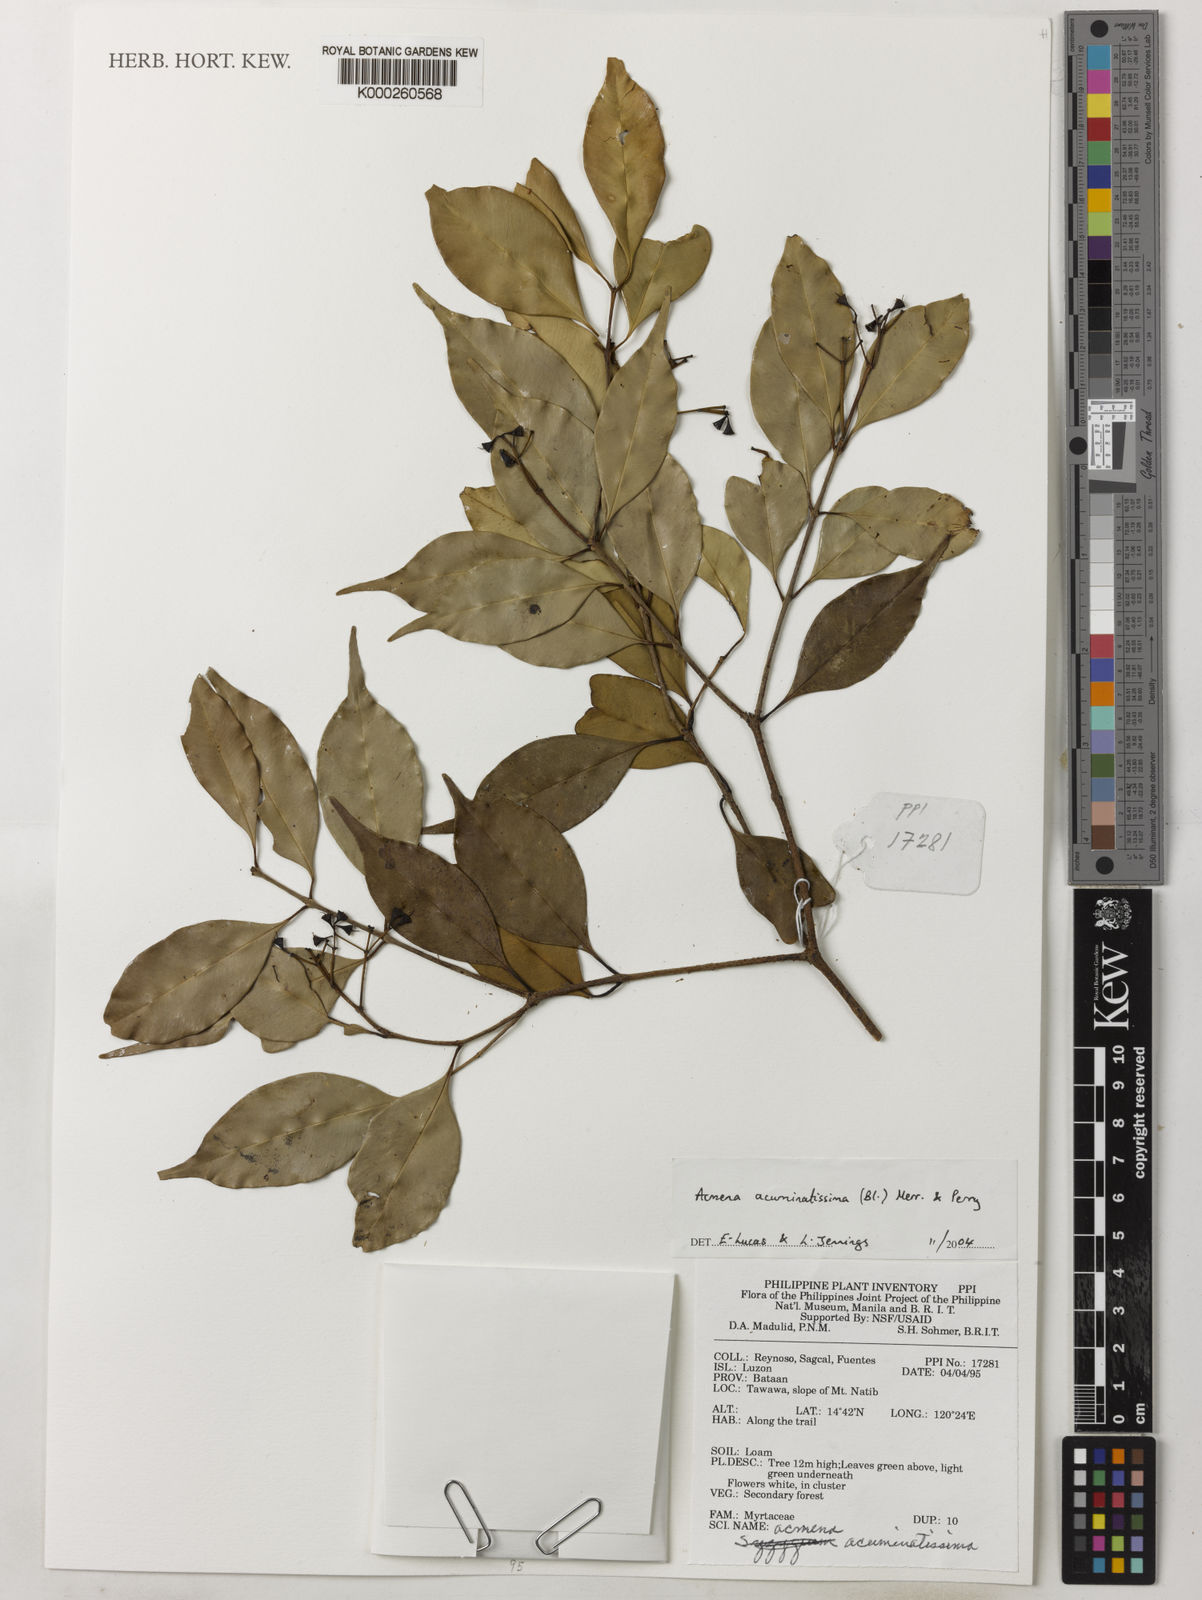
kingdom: Plantae
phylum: Tracheophyta
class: Magnoliopsida
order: Myrtales
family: Myrtaceae
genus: Syzygium
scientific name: Syzygium acuminatissimum
